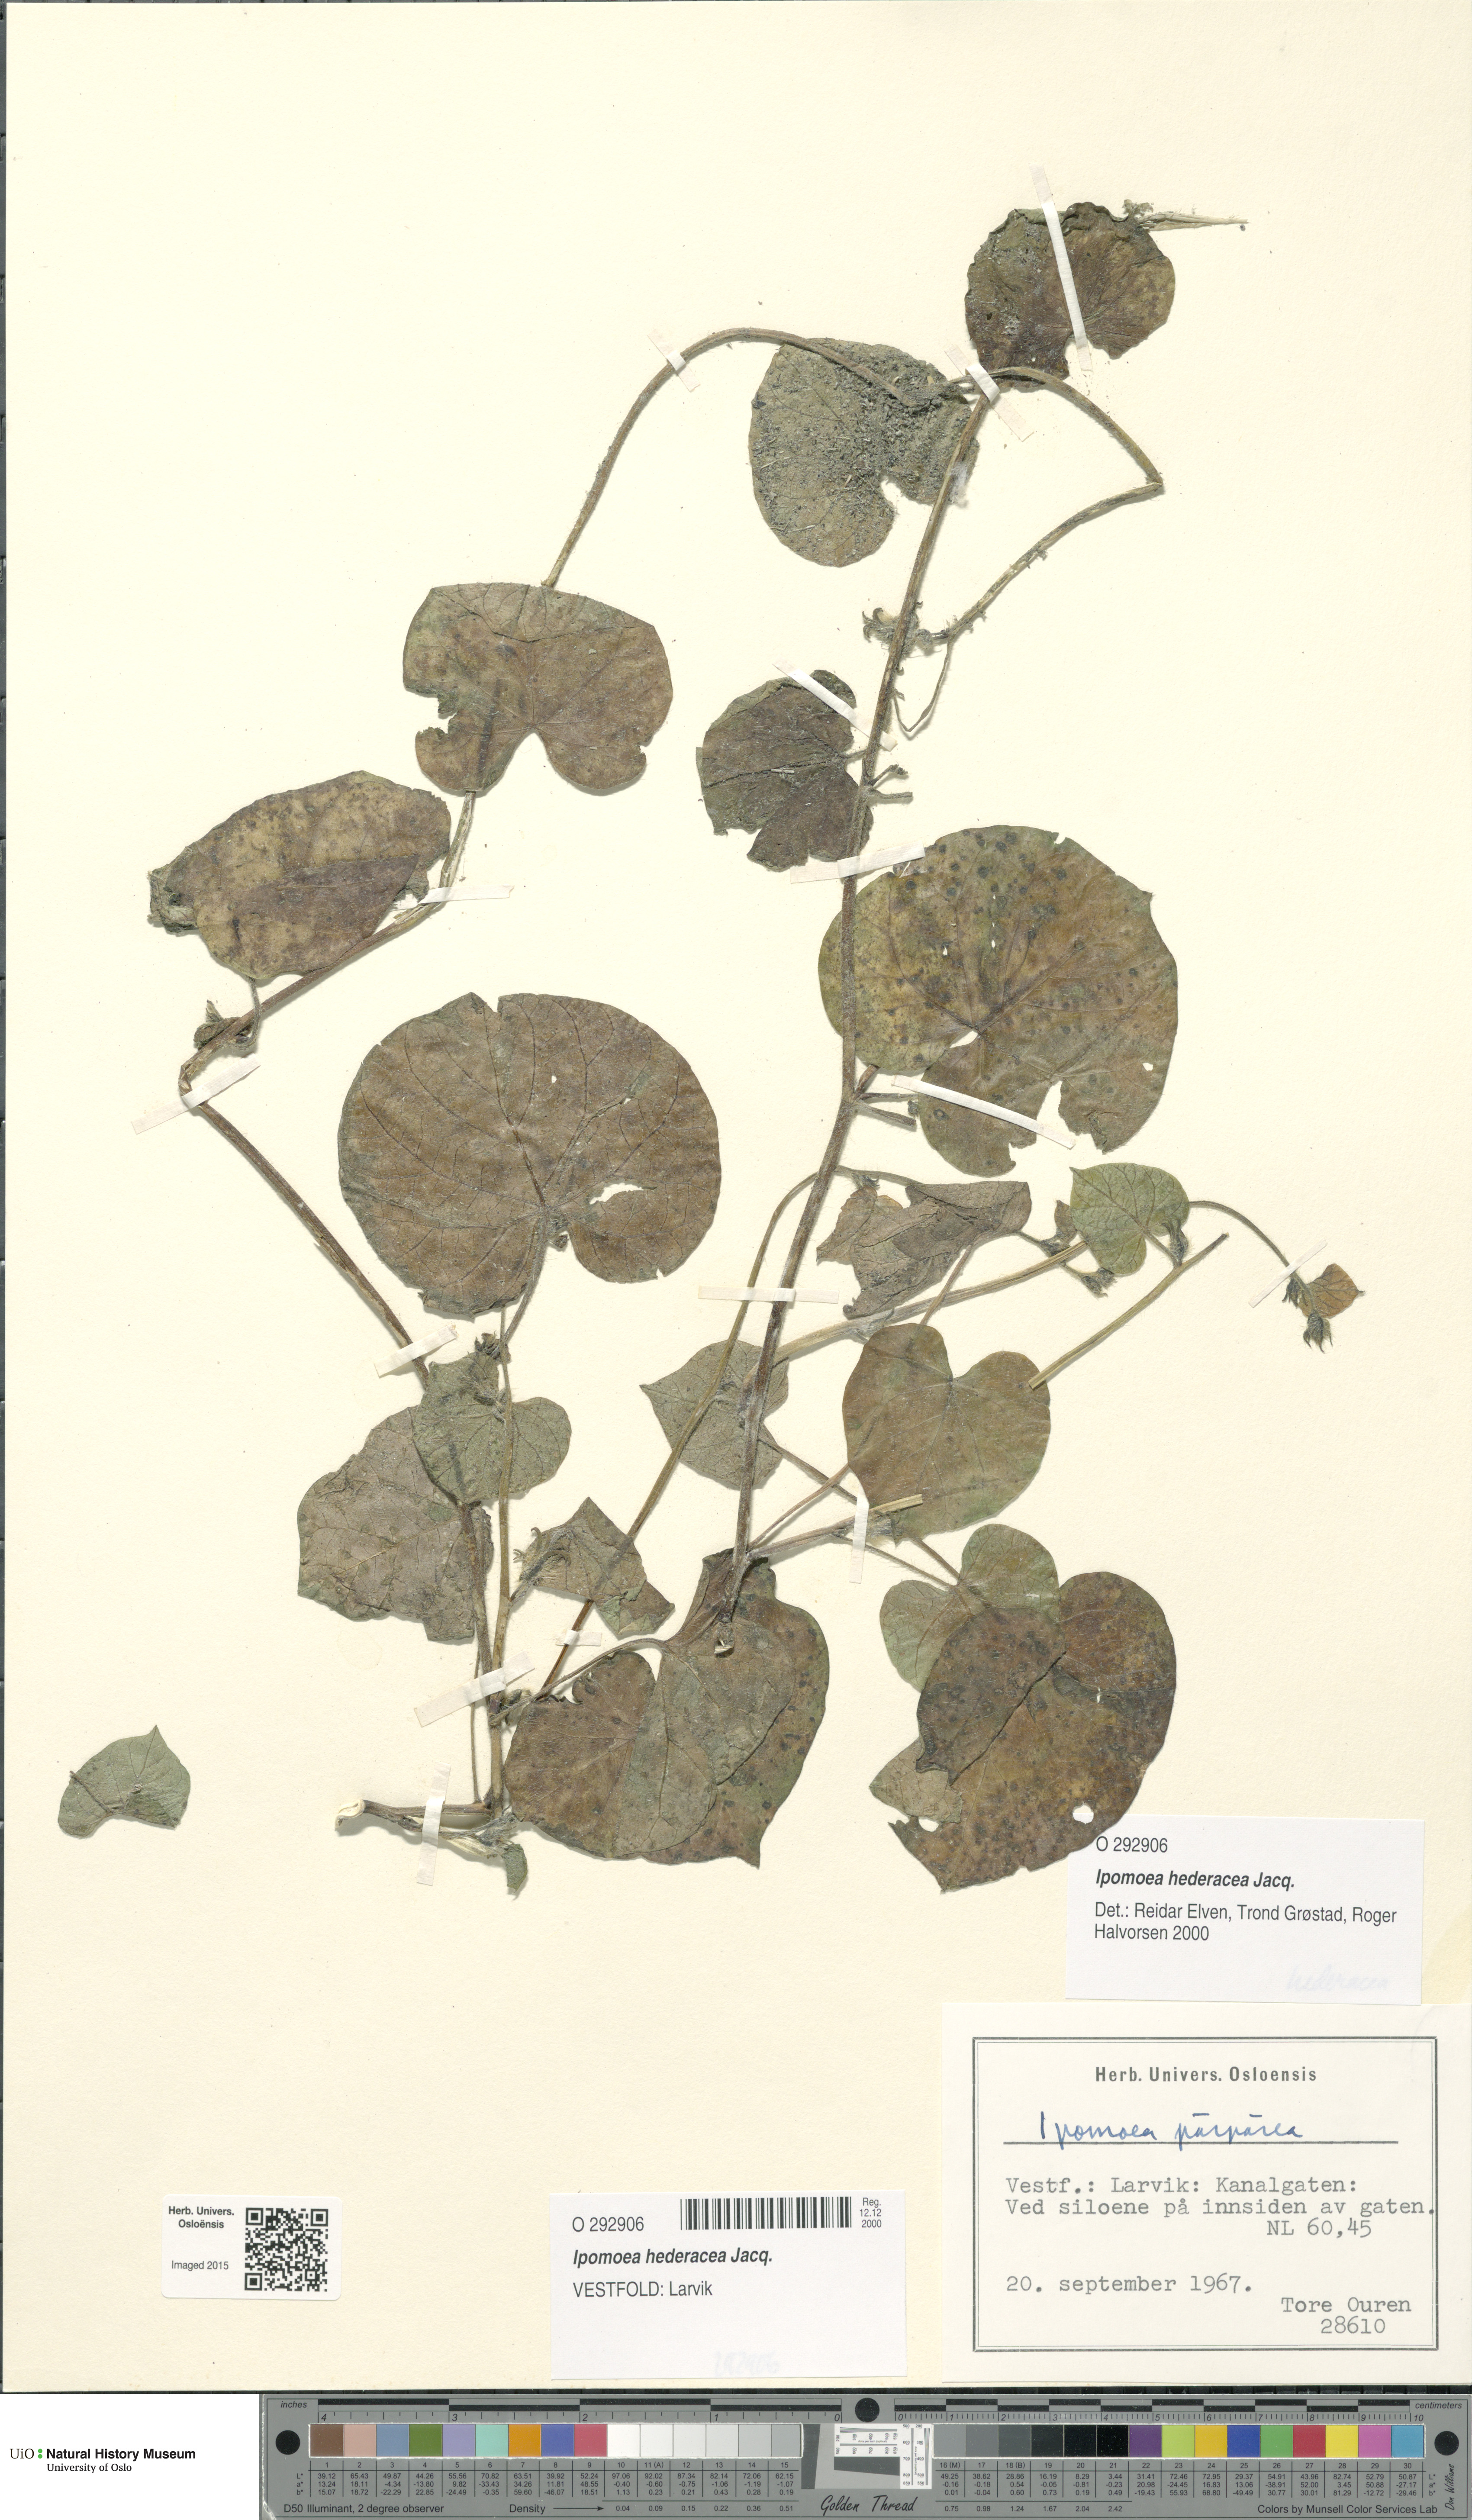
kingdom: Plantae
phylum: Tracheophyta
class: Magnoliopsida
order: Solanales
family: Convolvulaceae
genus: Ipomoea
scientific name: Ipomoea nil
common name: Japanese morning-glory
